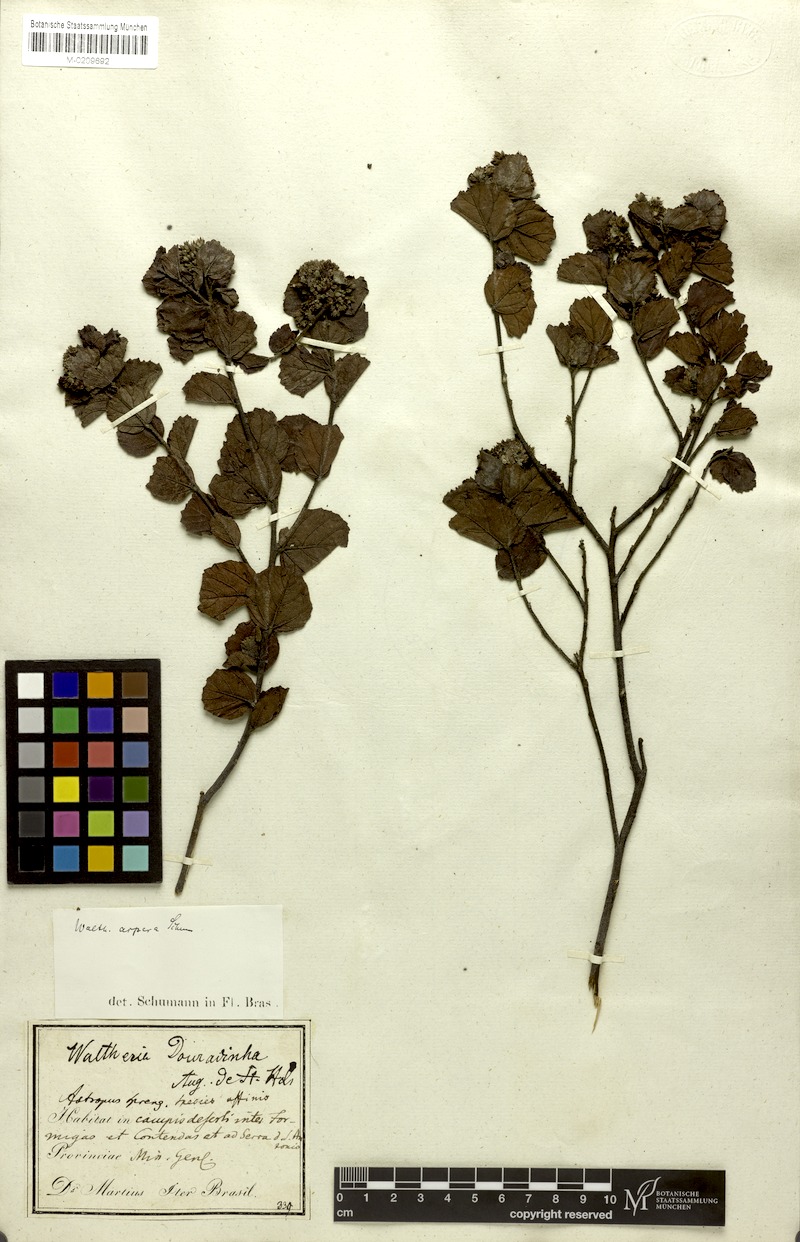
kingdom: Plantae
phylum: Tracheophyta
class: Magnoliopsida
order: Malvales
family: Malvaceae
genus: Waltheria
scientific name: Waltheria scabra
